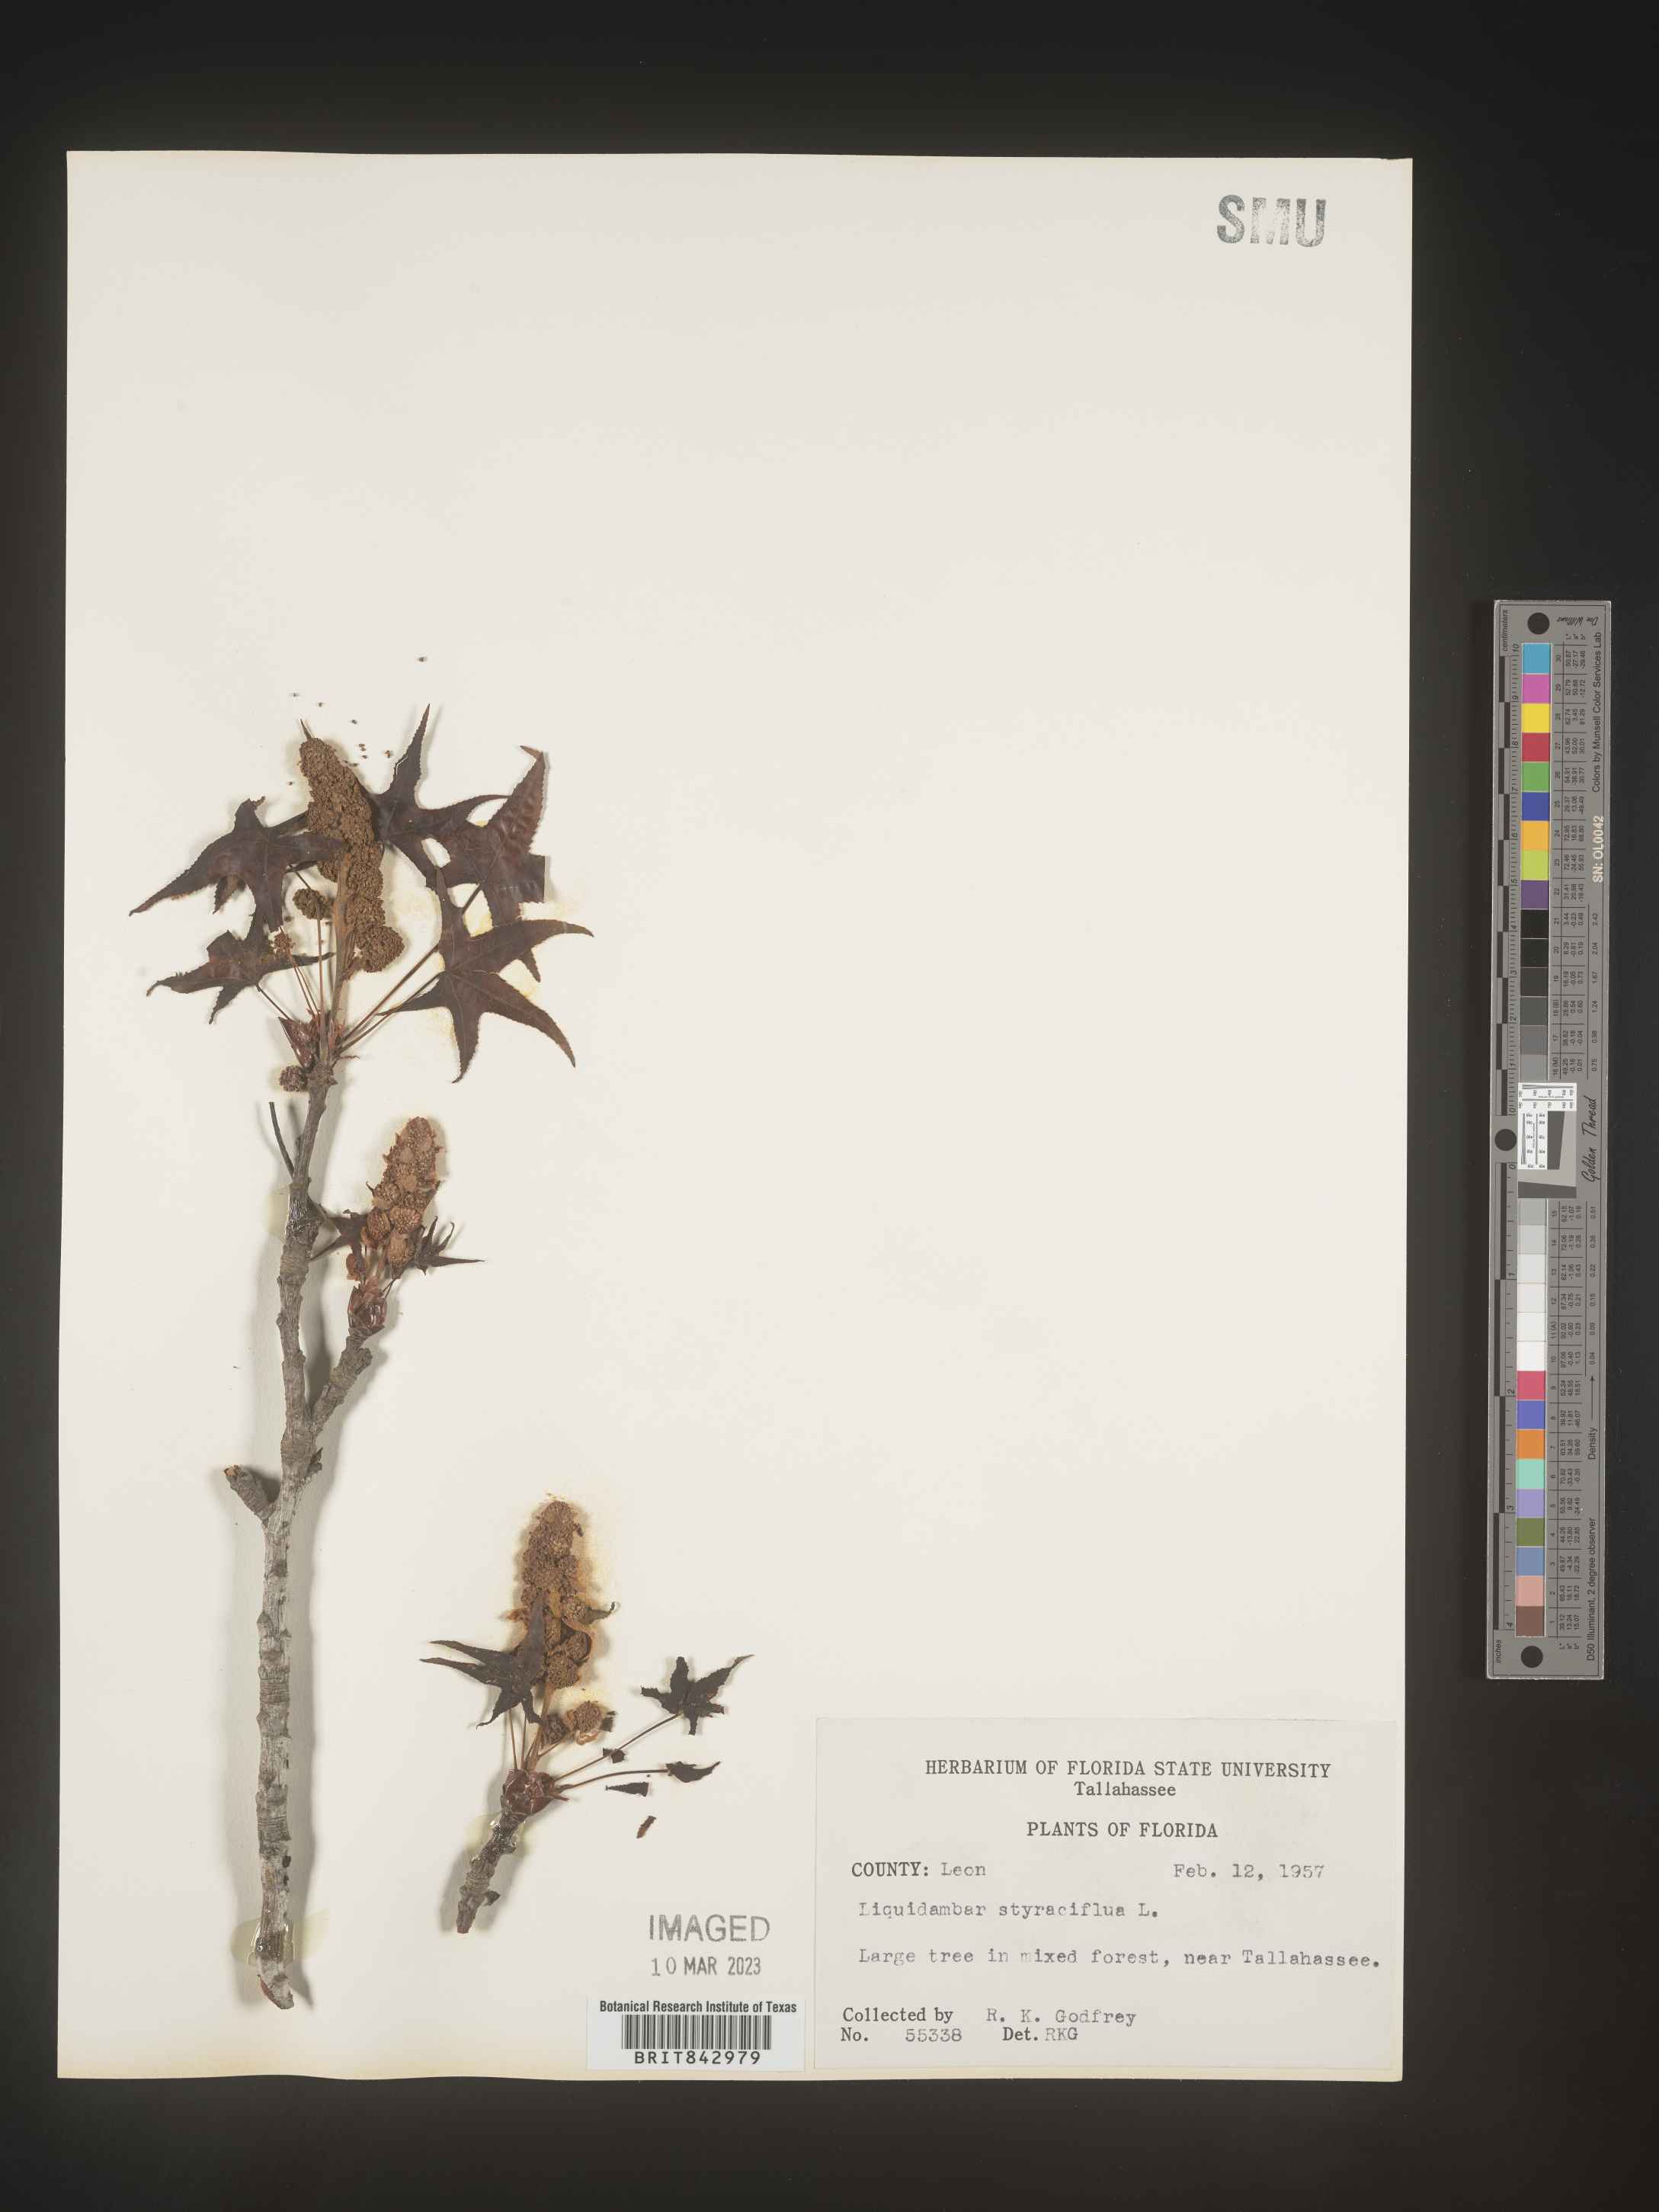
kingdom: Plantae
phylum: Tracheophyta
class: Magnoliopsida
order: Saxifragales
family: Altingiaceae
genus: Liquidambar
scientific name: Liquidambar
